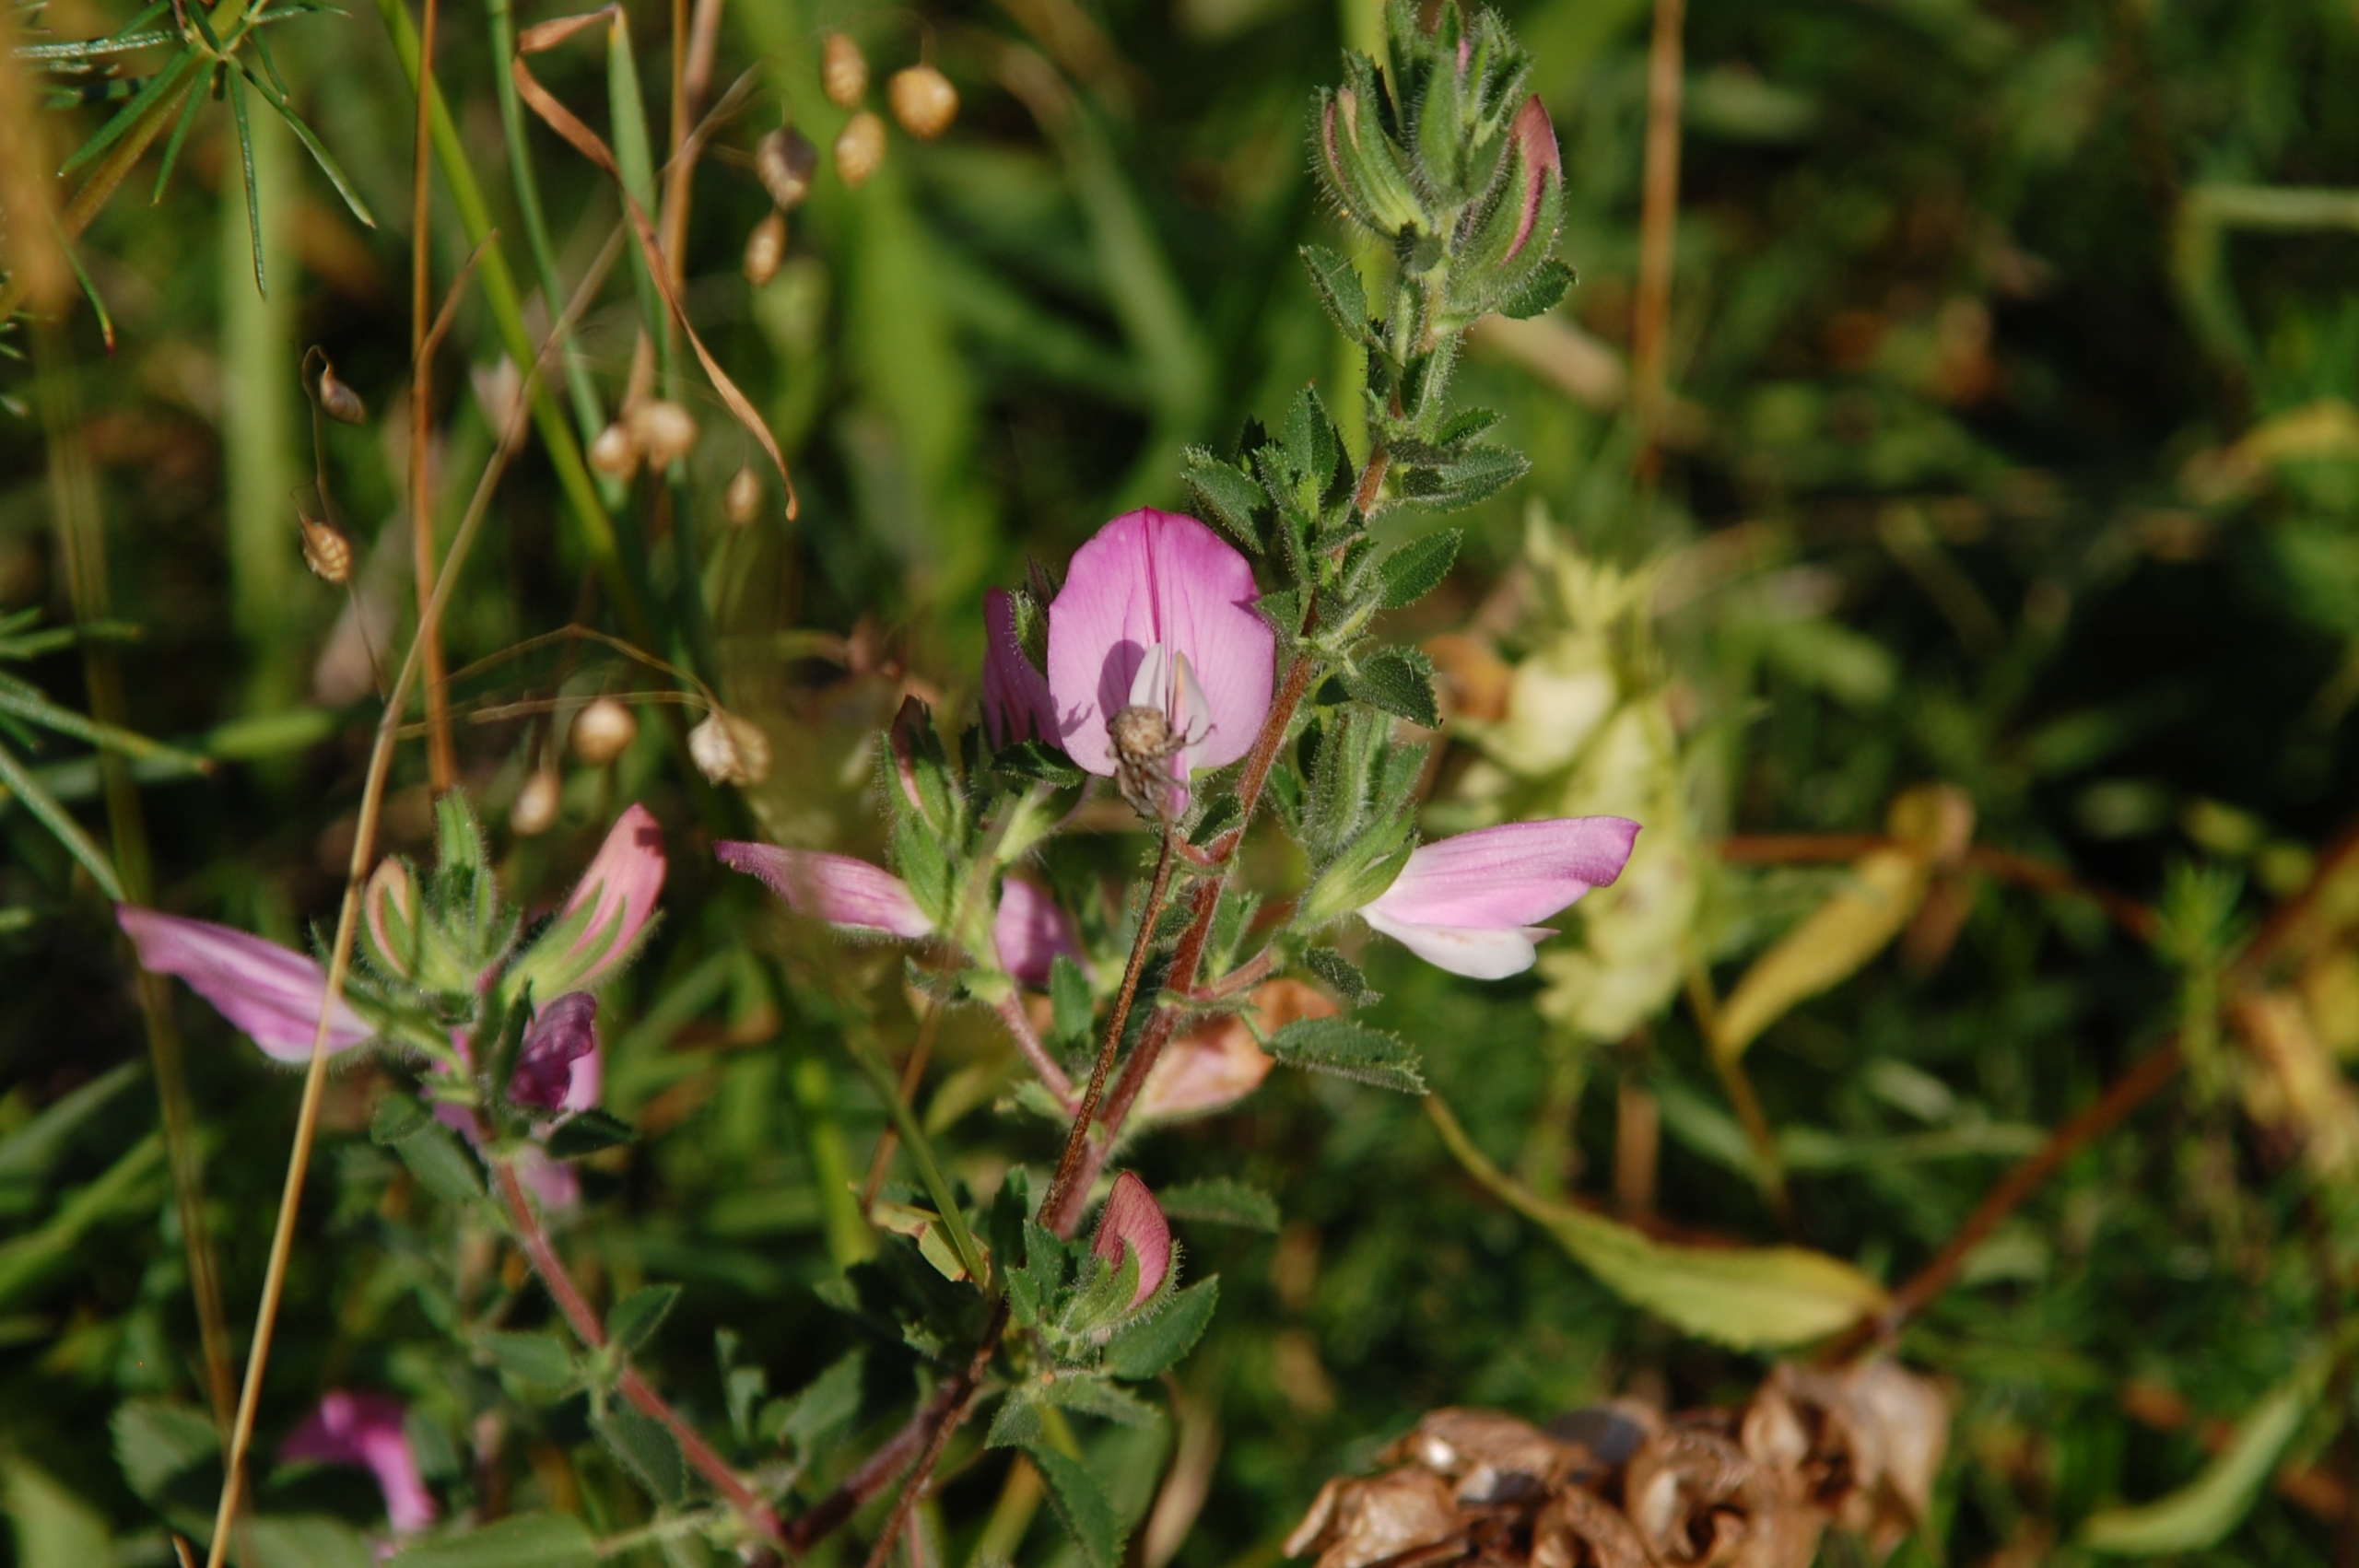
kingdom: Plantae
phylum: Tracheophyta
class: Magnoliopsida
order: Fabales
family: Fabaceae
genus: Ononis
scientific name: Ononis spinosa
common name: Mark-krageklo
